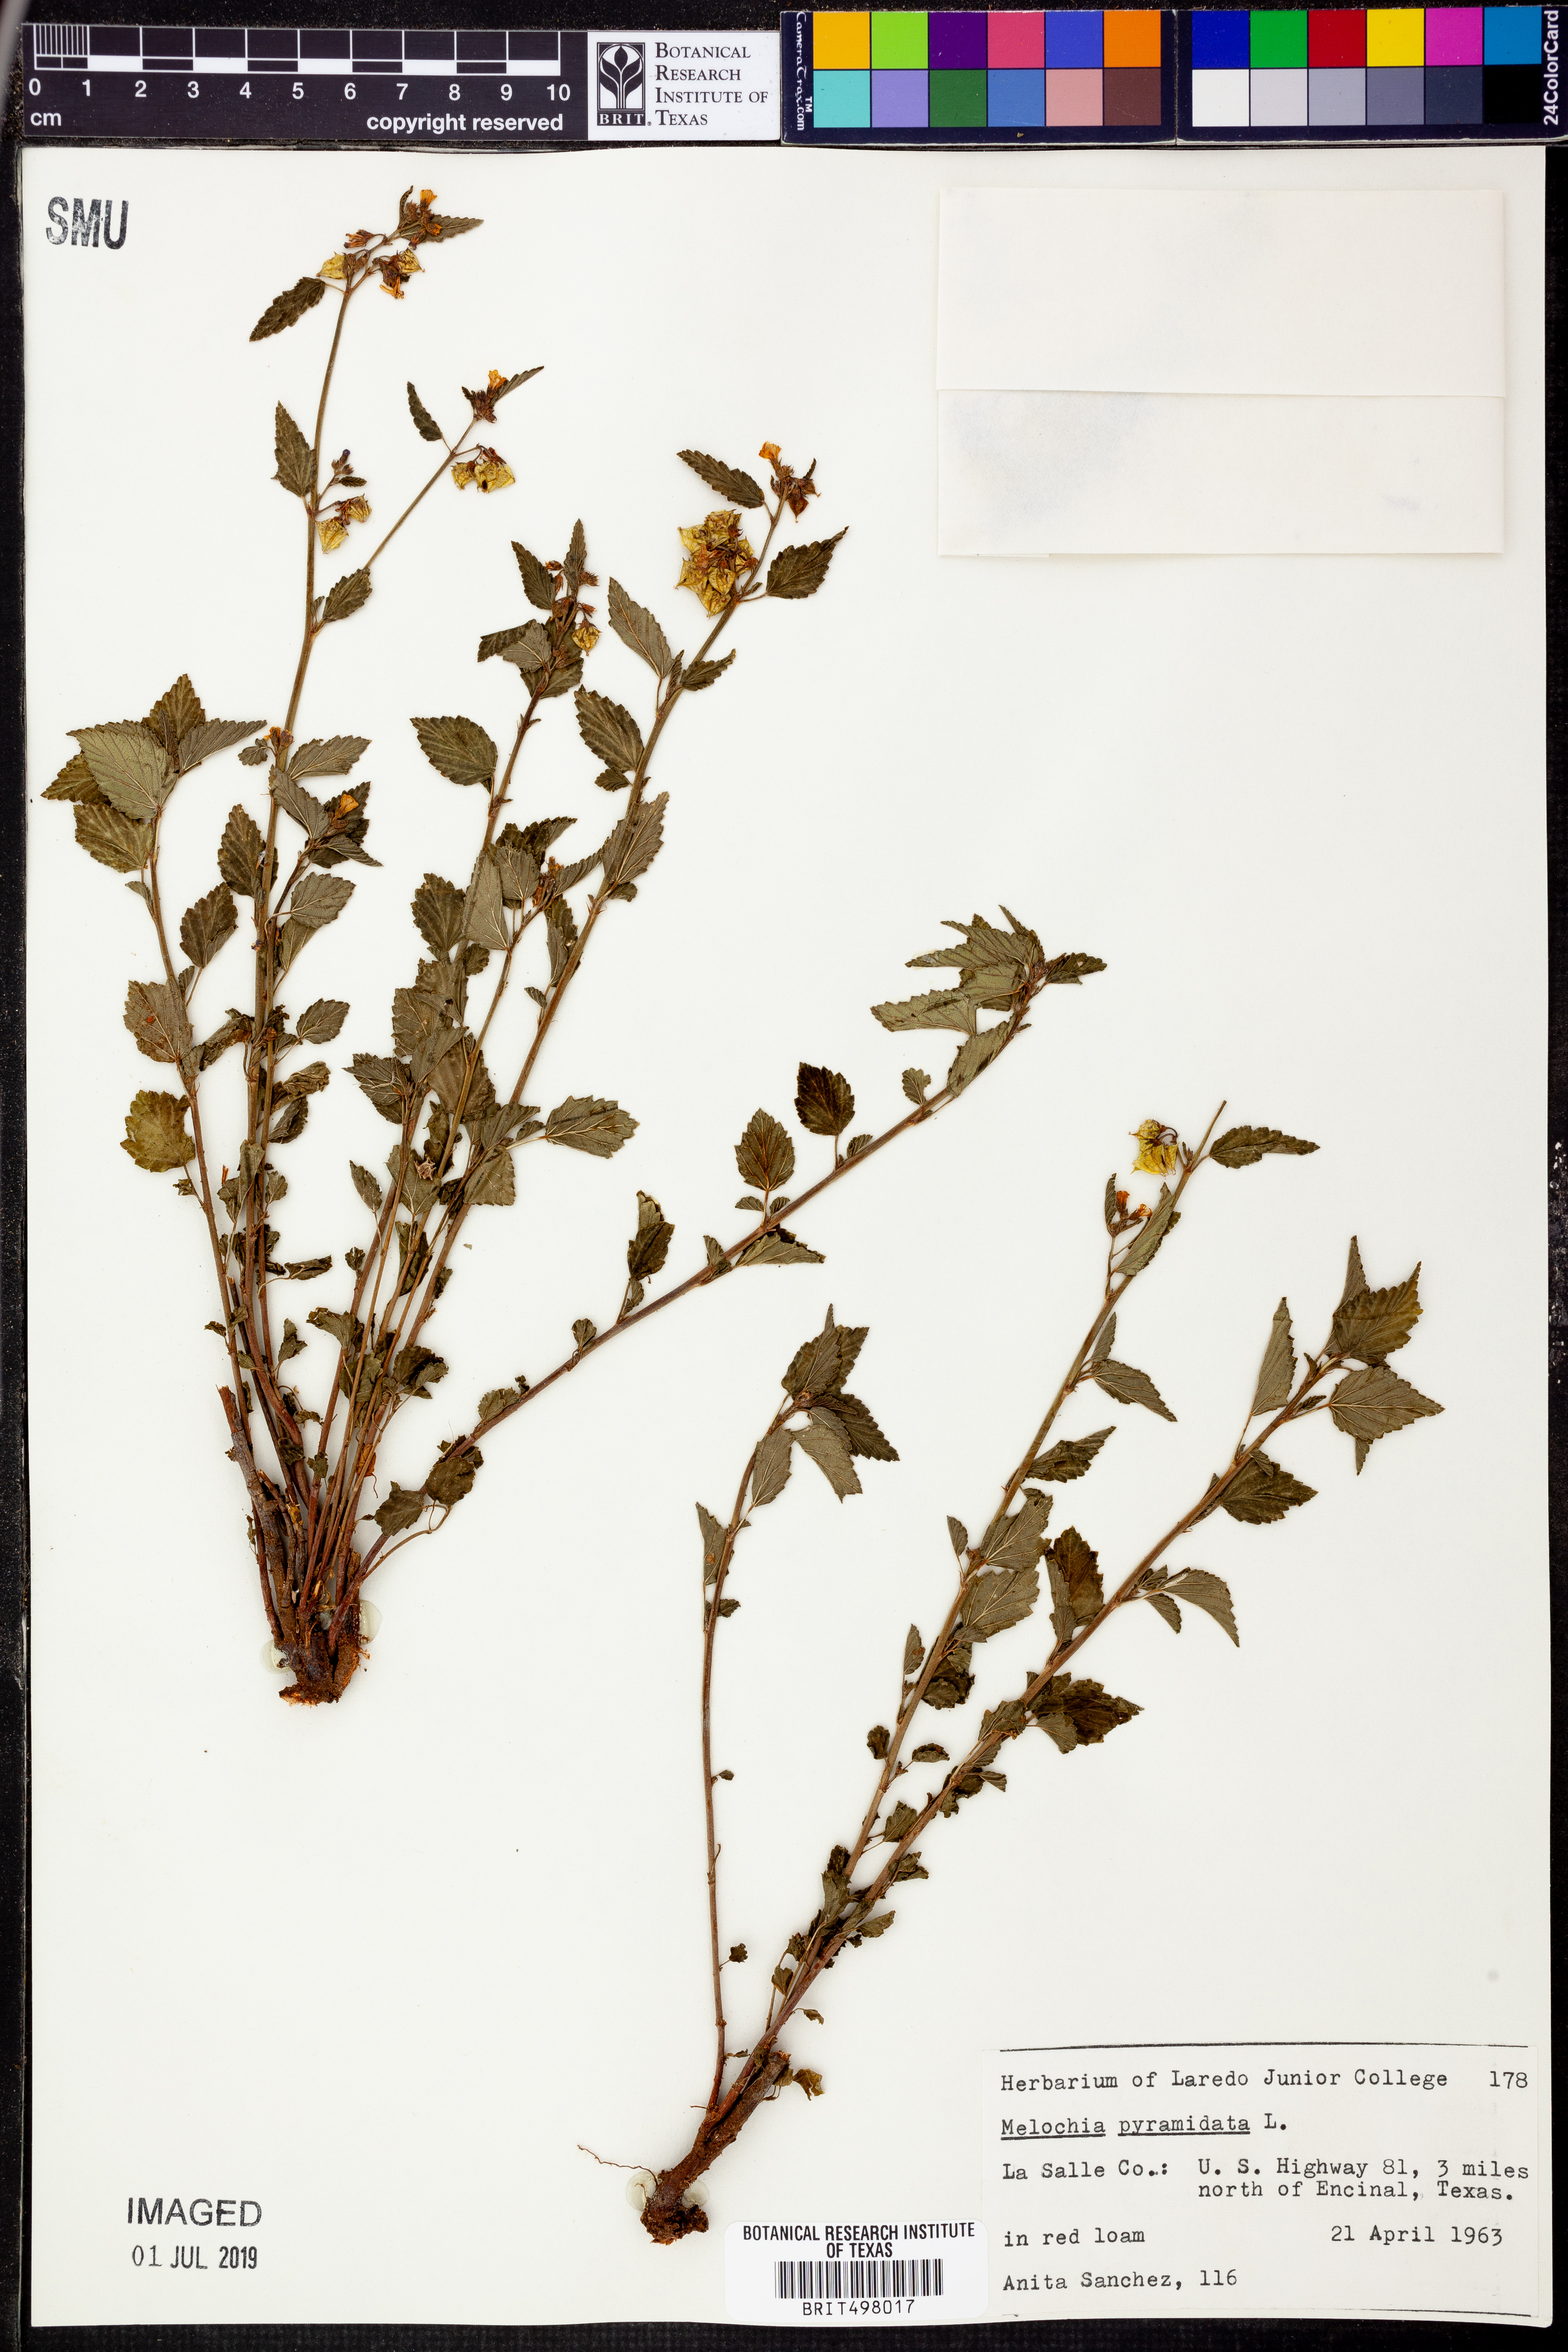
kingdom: Plantae
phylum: Tracheophyta
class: Magnoliopsida
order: Malvales
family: Malvaceae
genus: Melochia
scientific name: Melochia pyramidata
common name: Pyramidflower
